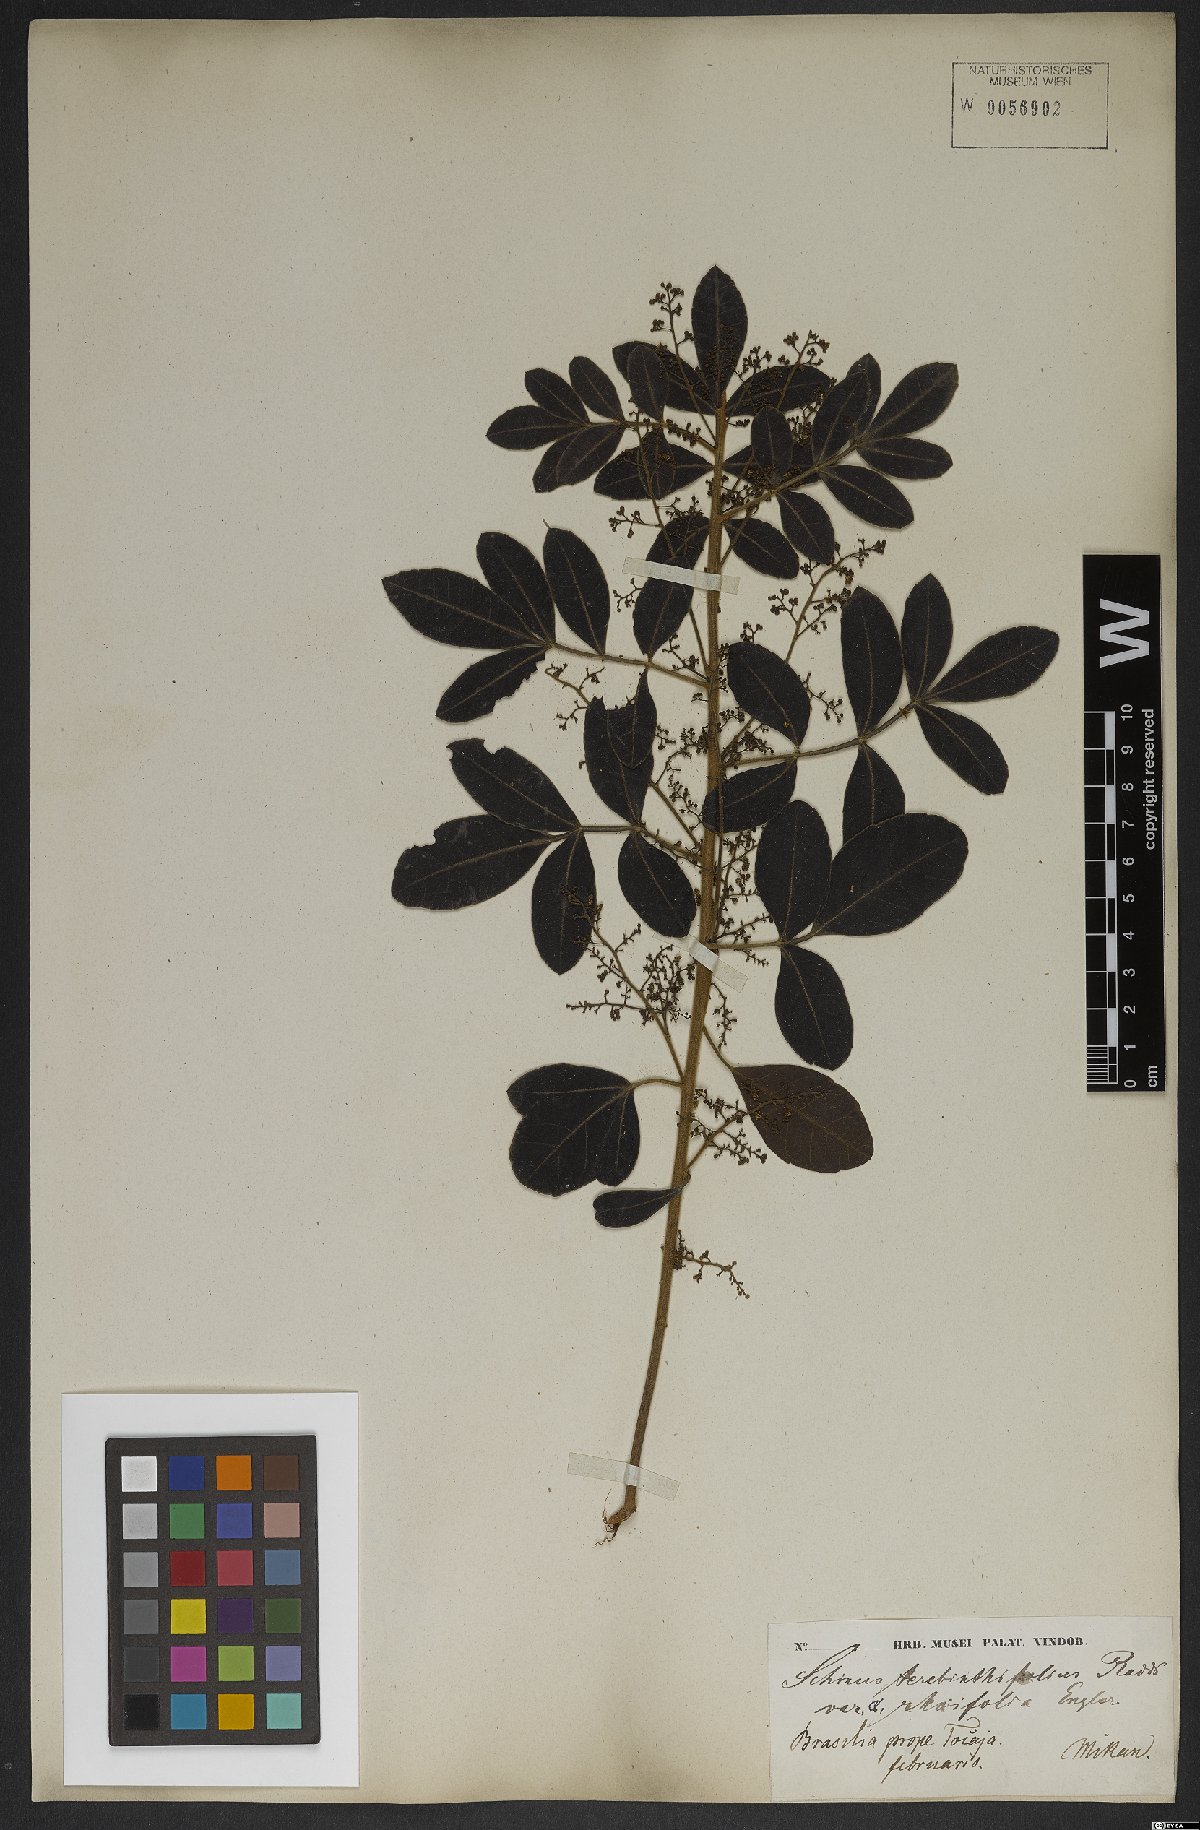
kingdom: Plantae
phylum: Tracheophyta
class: Magnoliopsida
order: Sapindales
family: Anacardiaceae
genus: Schinus
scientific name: Schinus terebinthifolia
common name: Brazilian peppertree
